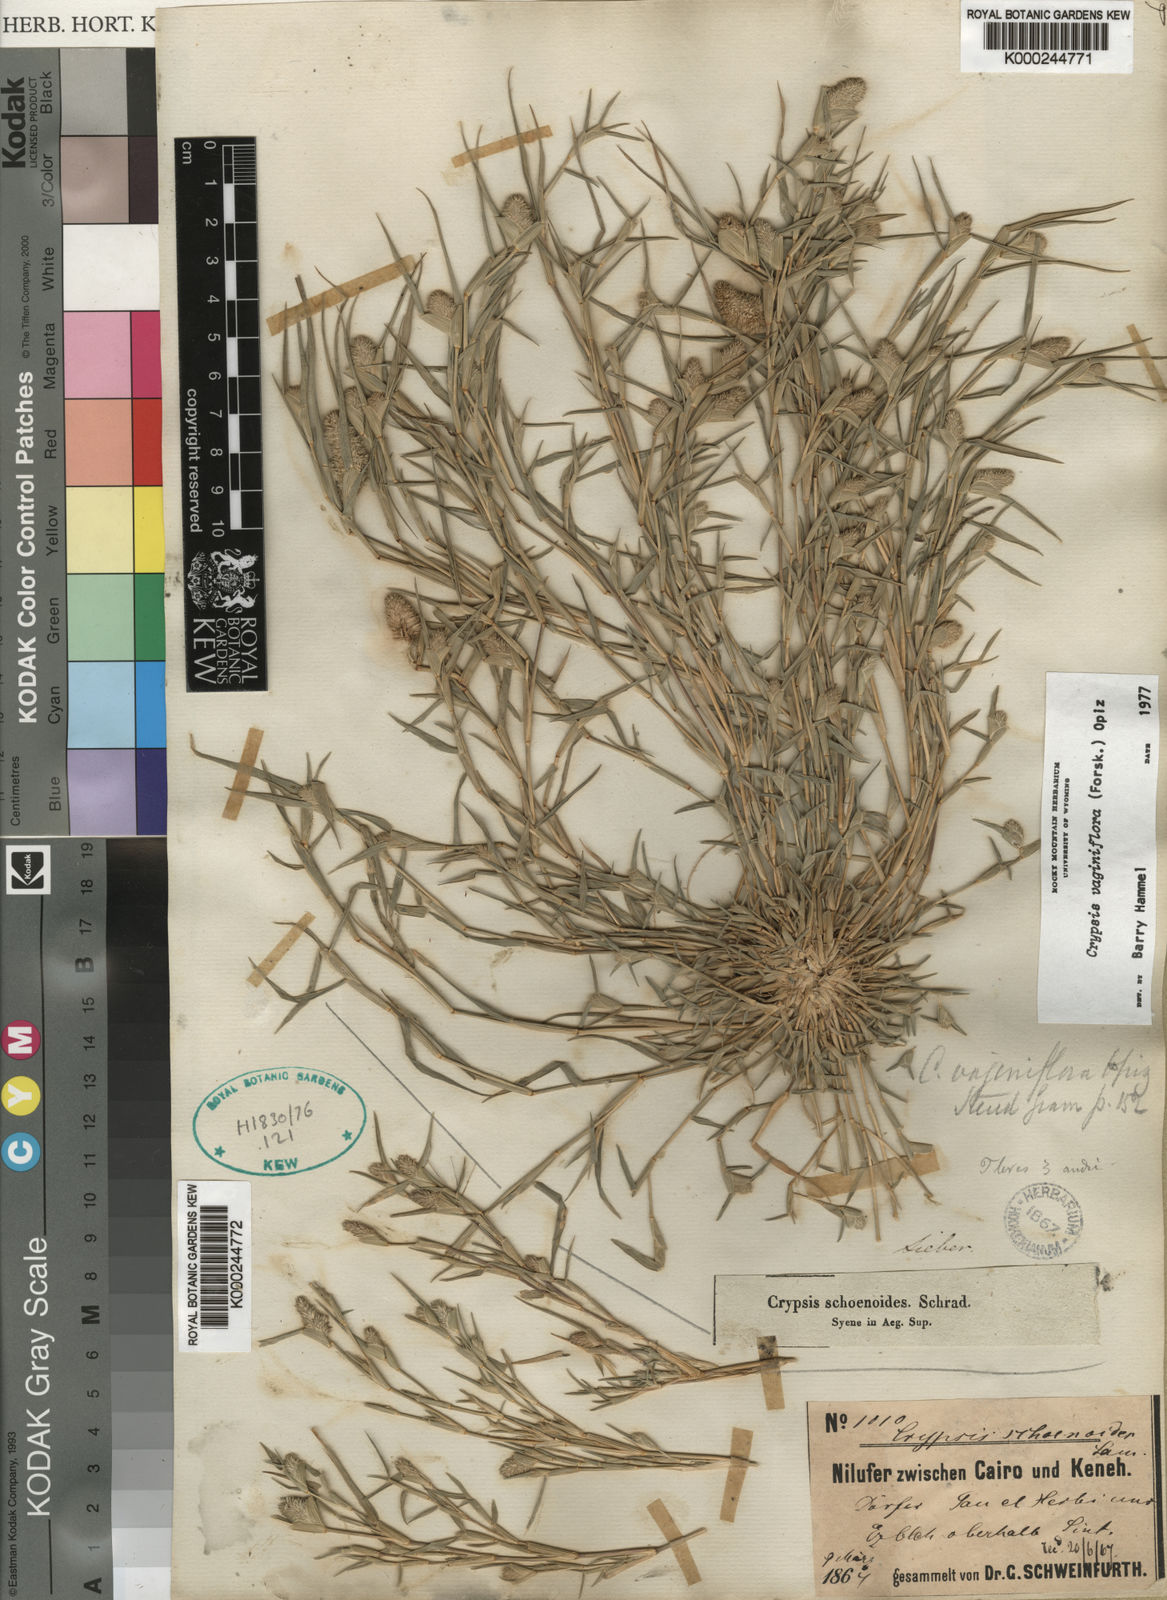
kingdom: Plantae
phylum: Tracheophyta
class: Liliopsida
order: Poales
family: Poaceae
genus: Sporobolus
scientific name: Sporobolus niliacus
